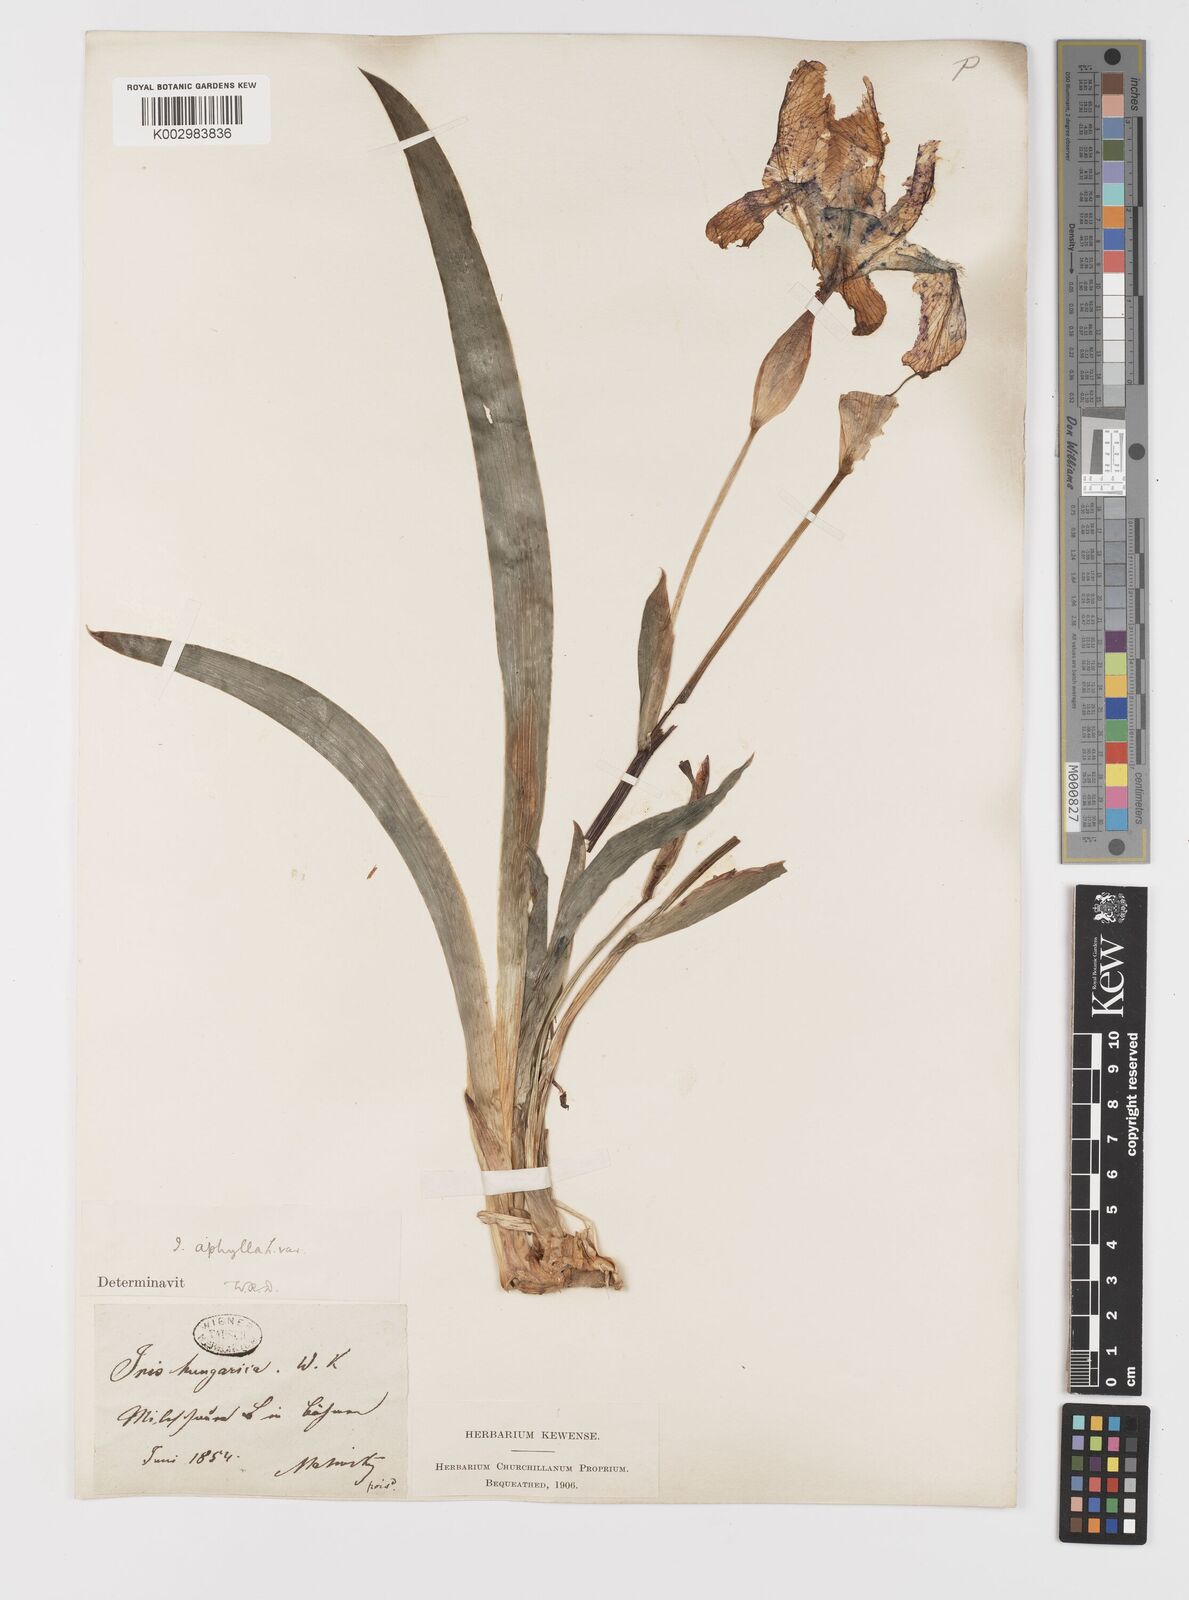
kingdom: Plantae
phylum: Tracheophyta
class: Liliopsida
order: Asparagales
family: Iridaceae
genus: Iris
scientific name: Iris aphylla
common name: Stool iris
